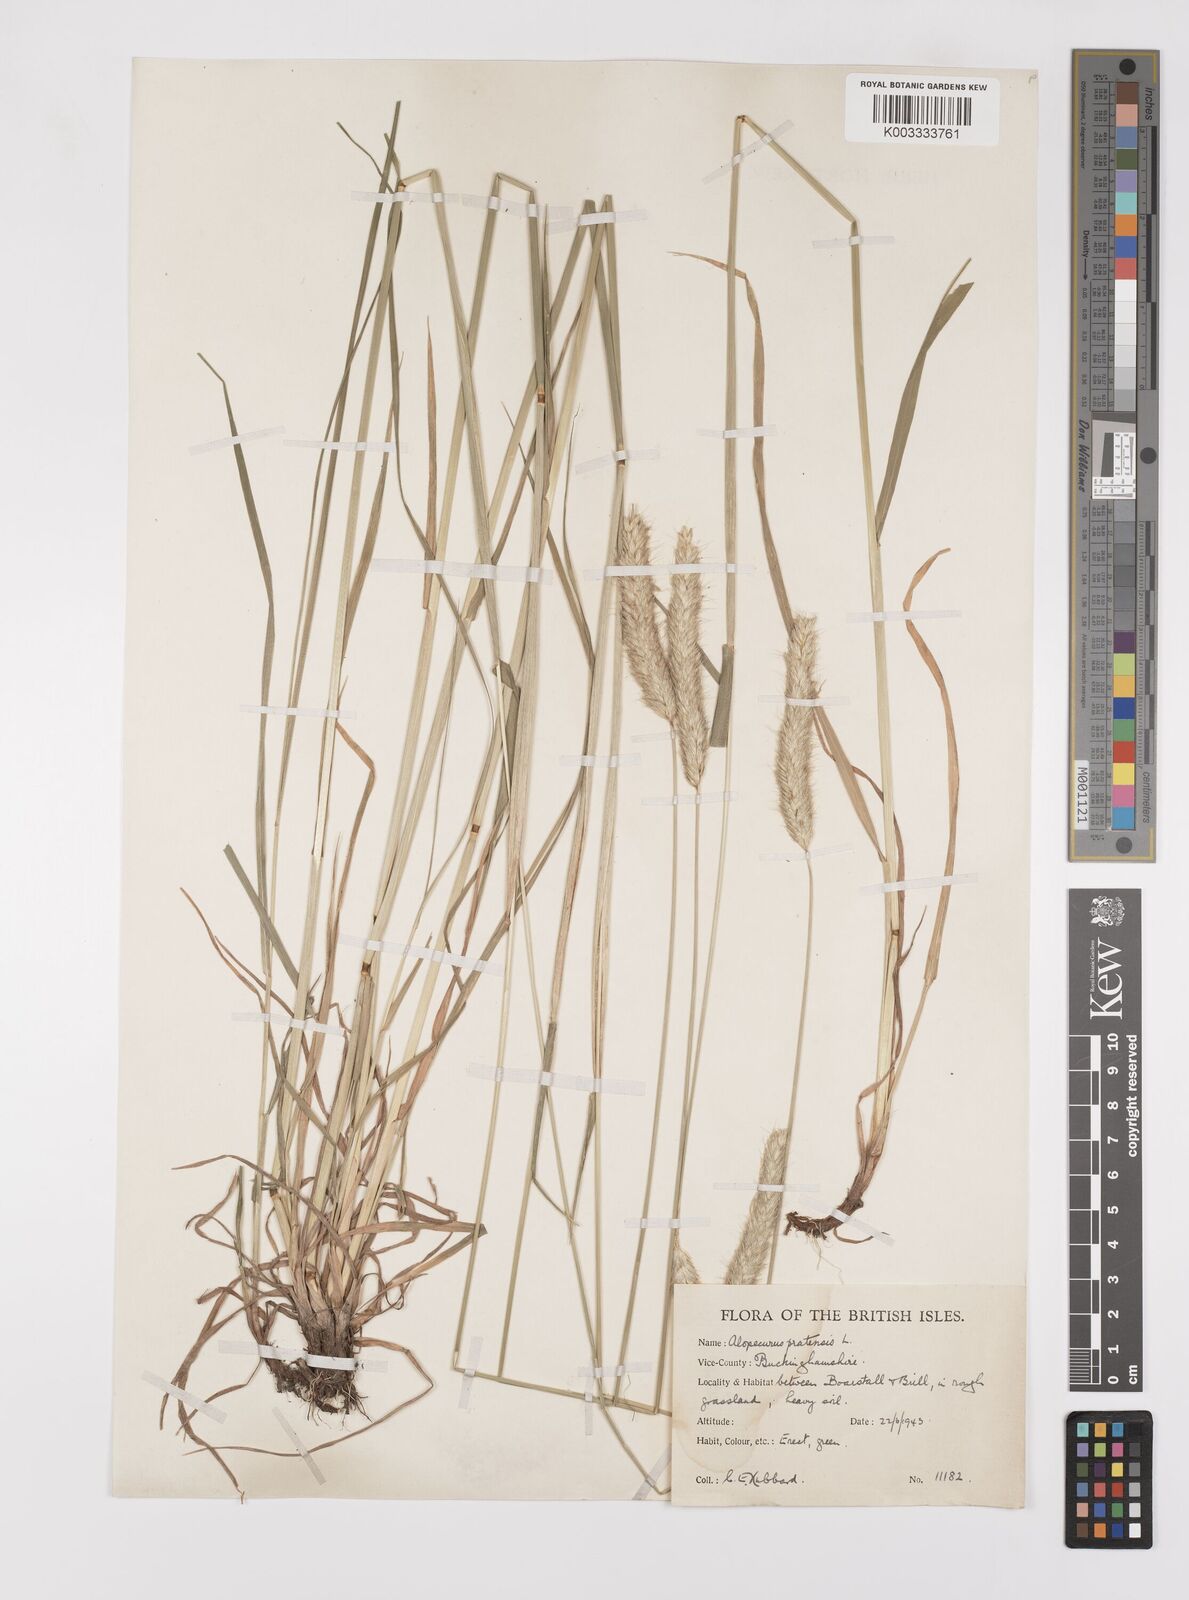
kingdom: Plantae
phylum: Tracheophyta
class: Liliopsida
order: Poales
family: Poaceae
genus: Alopecurus
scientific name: Alopecurus pratensis
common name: Meadow foxtail
